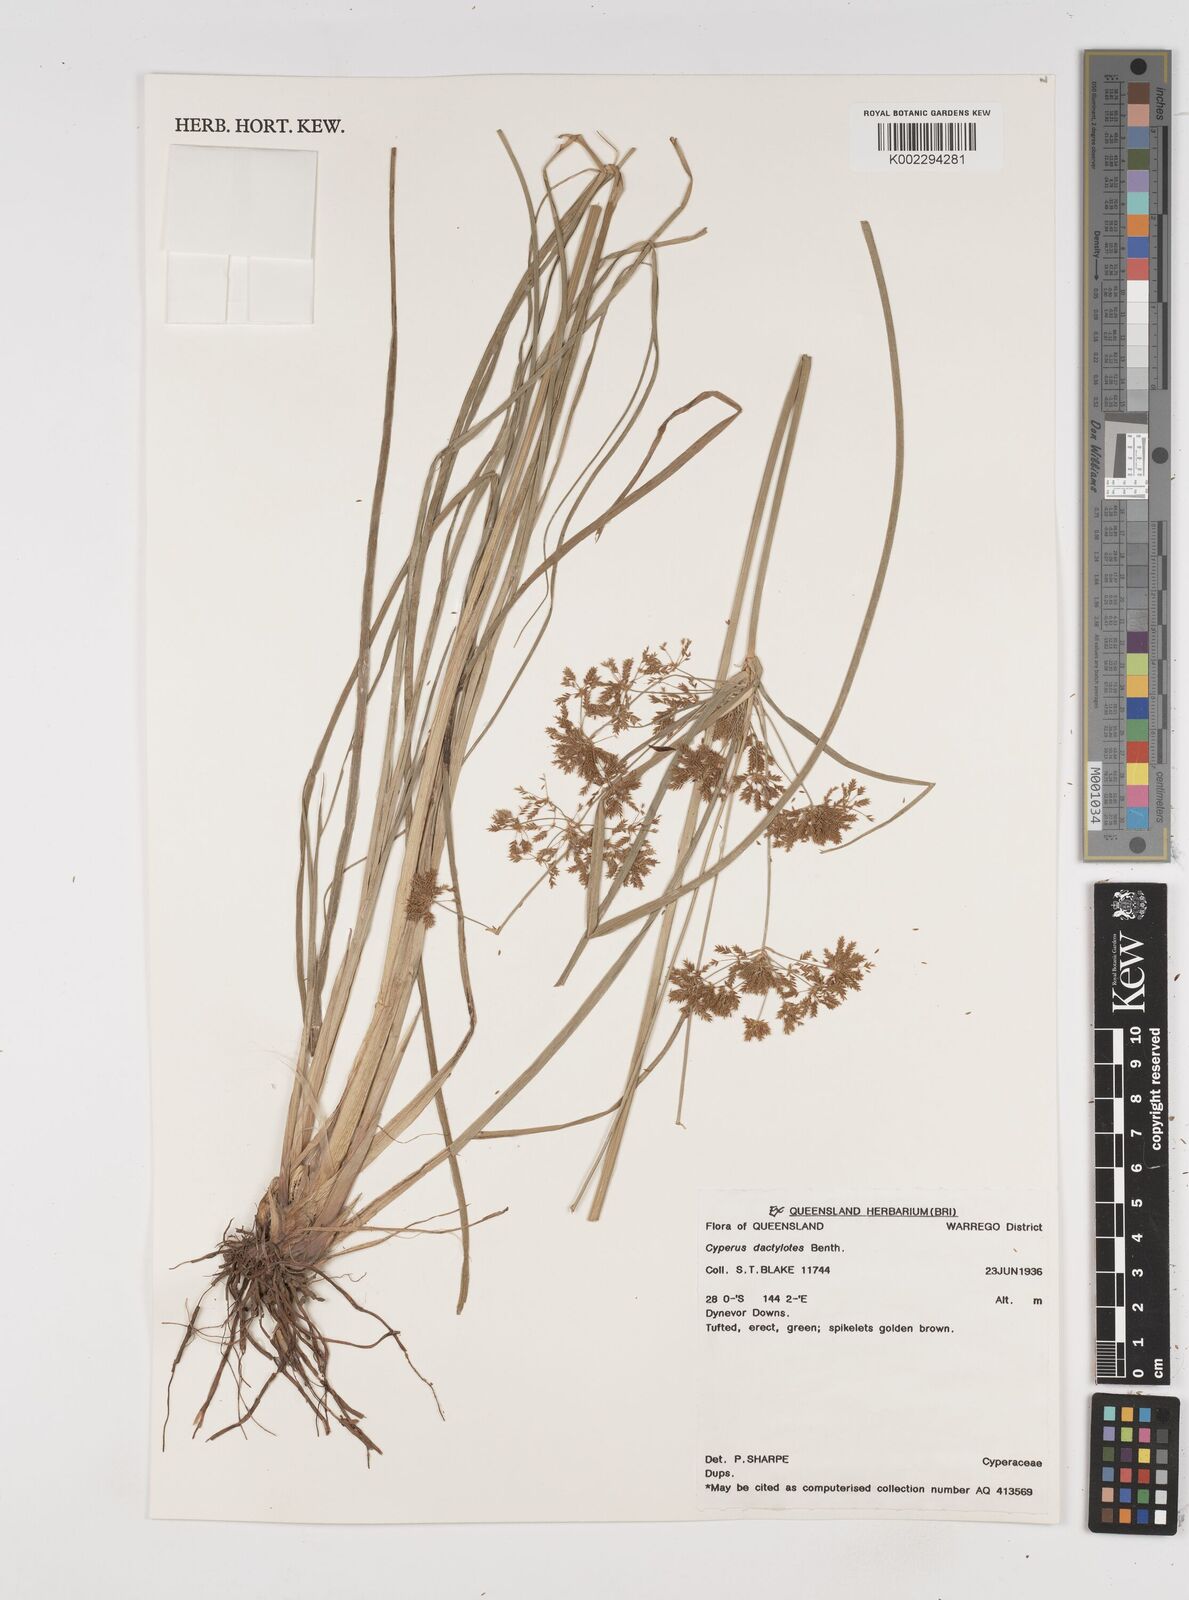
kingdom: Plantae
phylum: Tracheophyta
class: Liliopsida
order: Poales
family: Cyperaceae
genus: Cyperus
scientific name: Cyperus dactylotes
